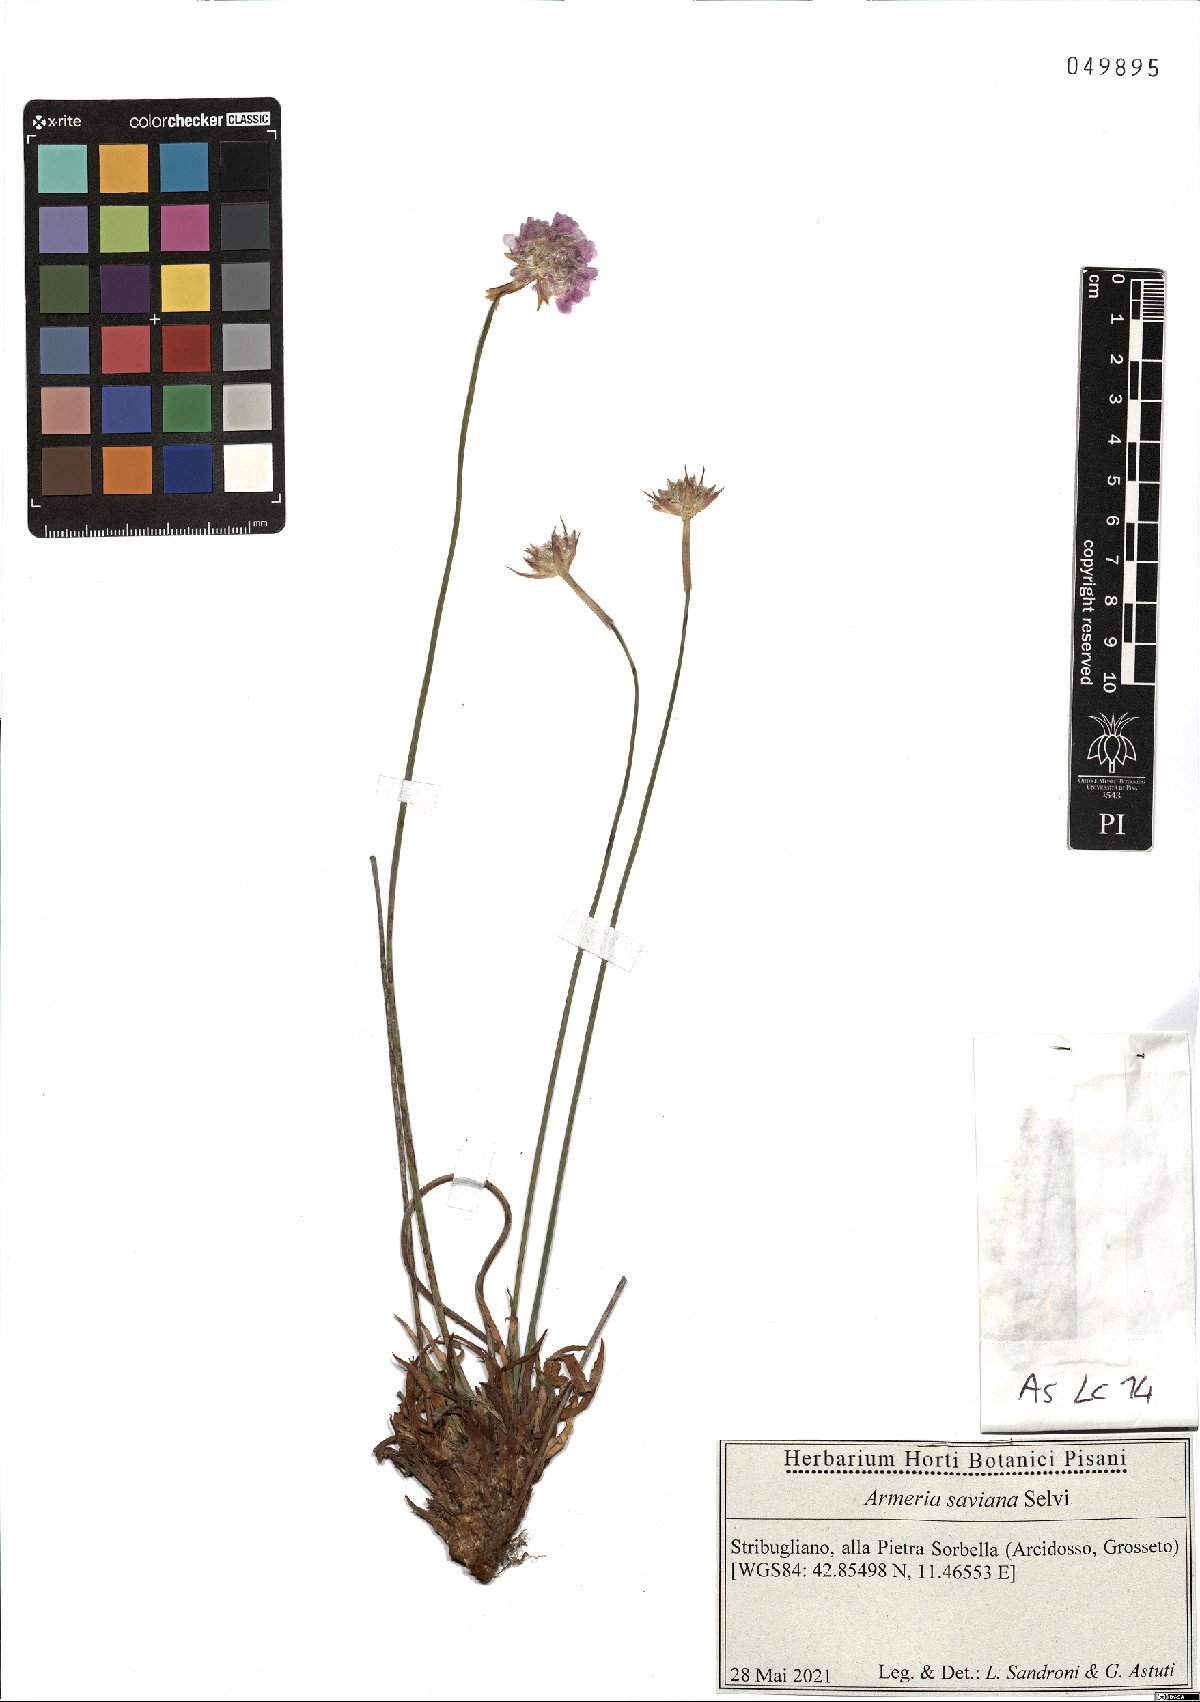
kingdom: Plantae
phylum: Tracheophyta
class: Magnoliopsida
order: Caryophyllales
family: Plumbaginaceae
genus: Armeria
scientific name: Armeria saviana
